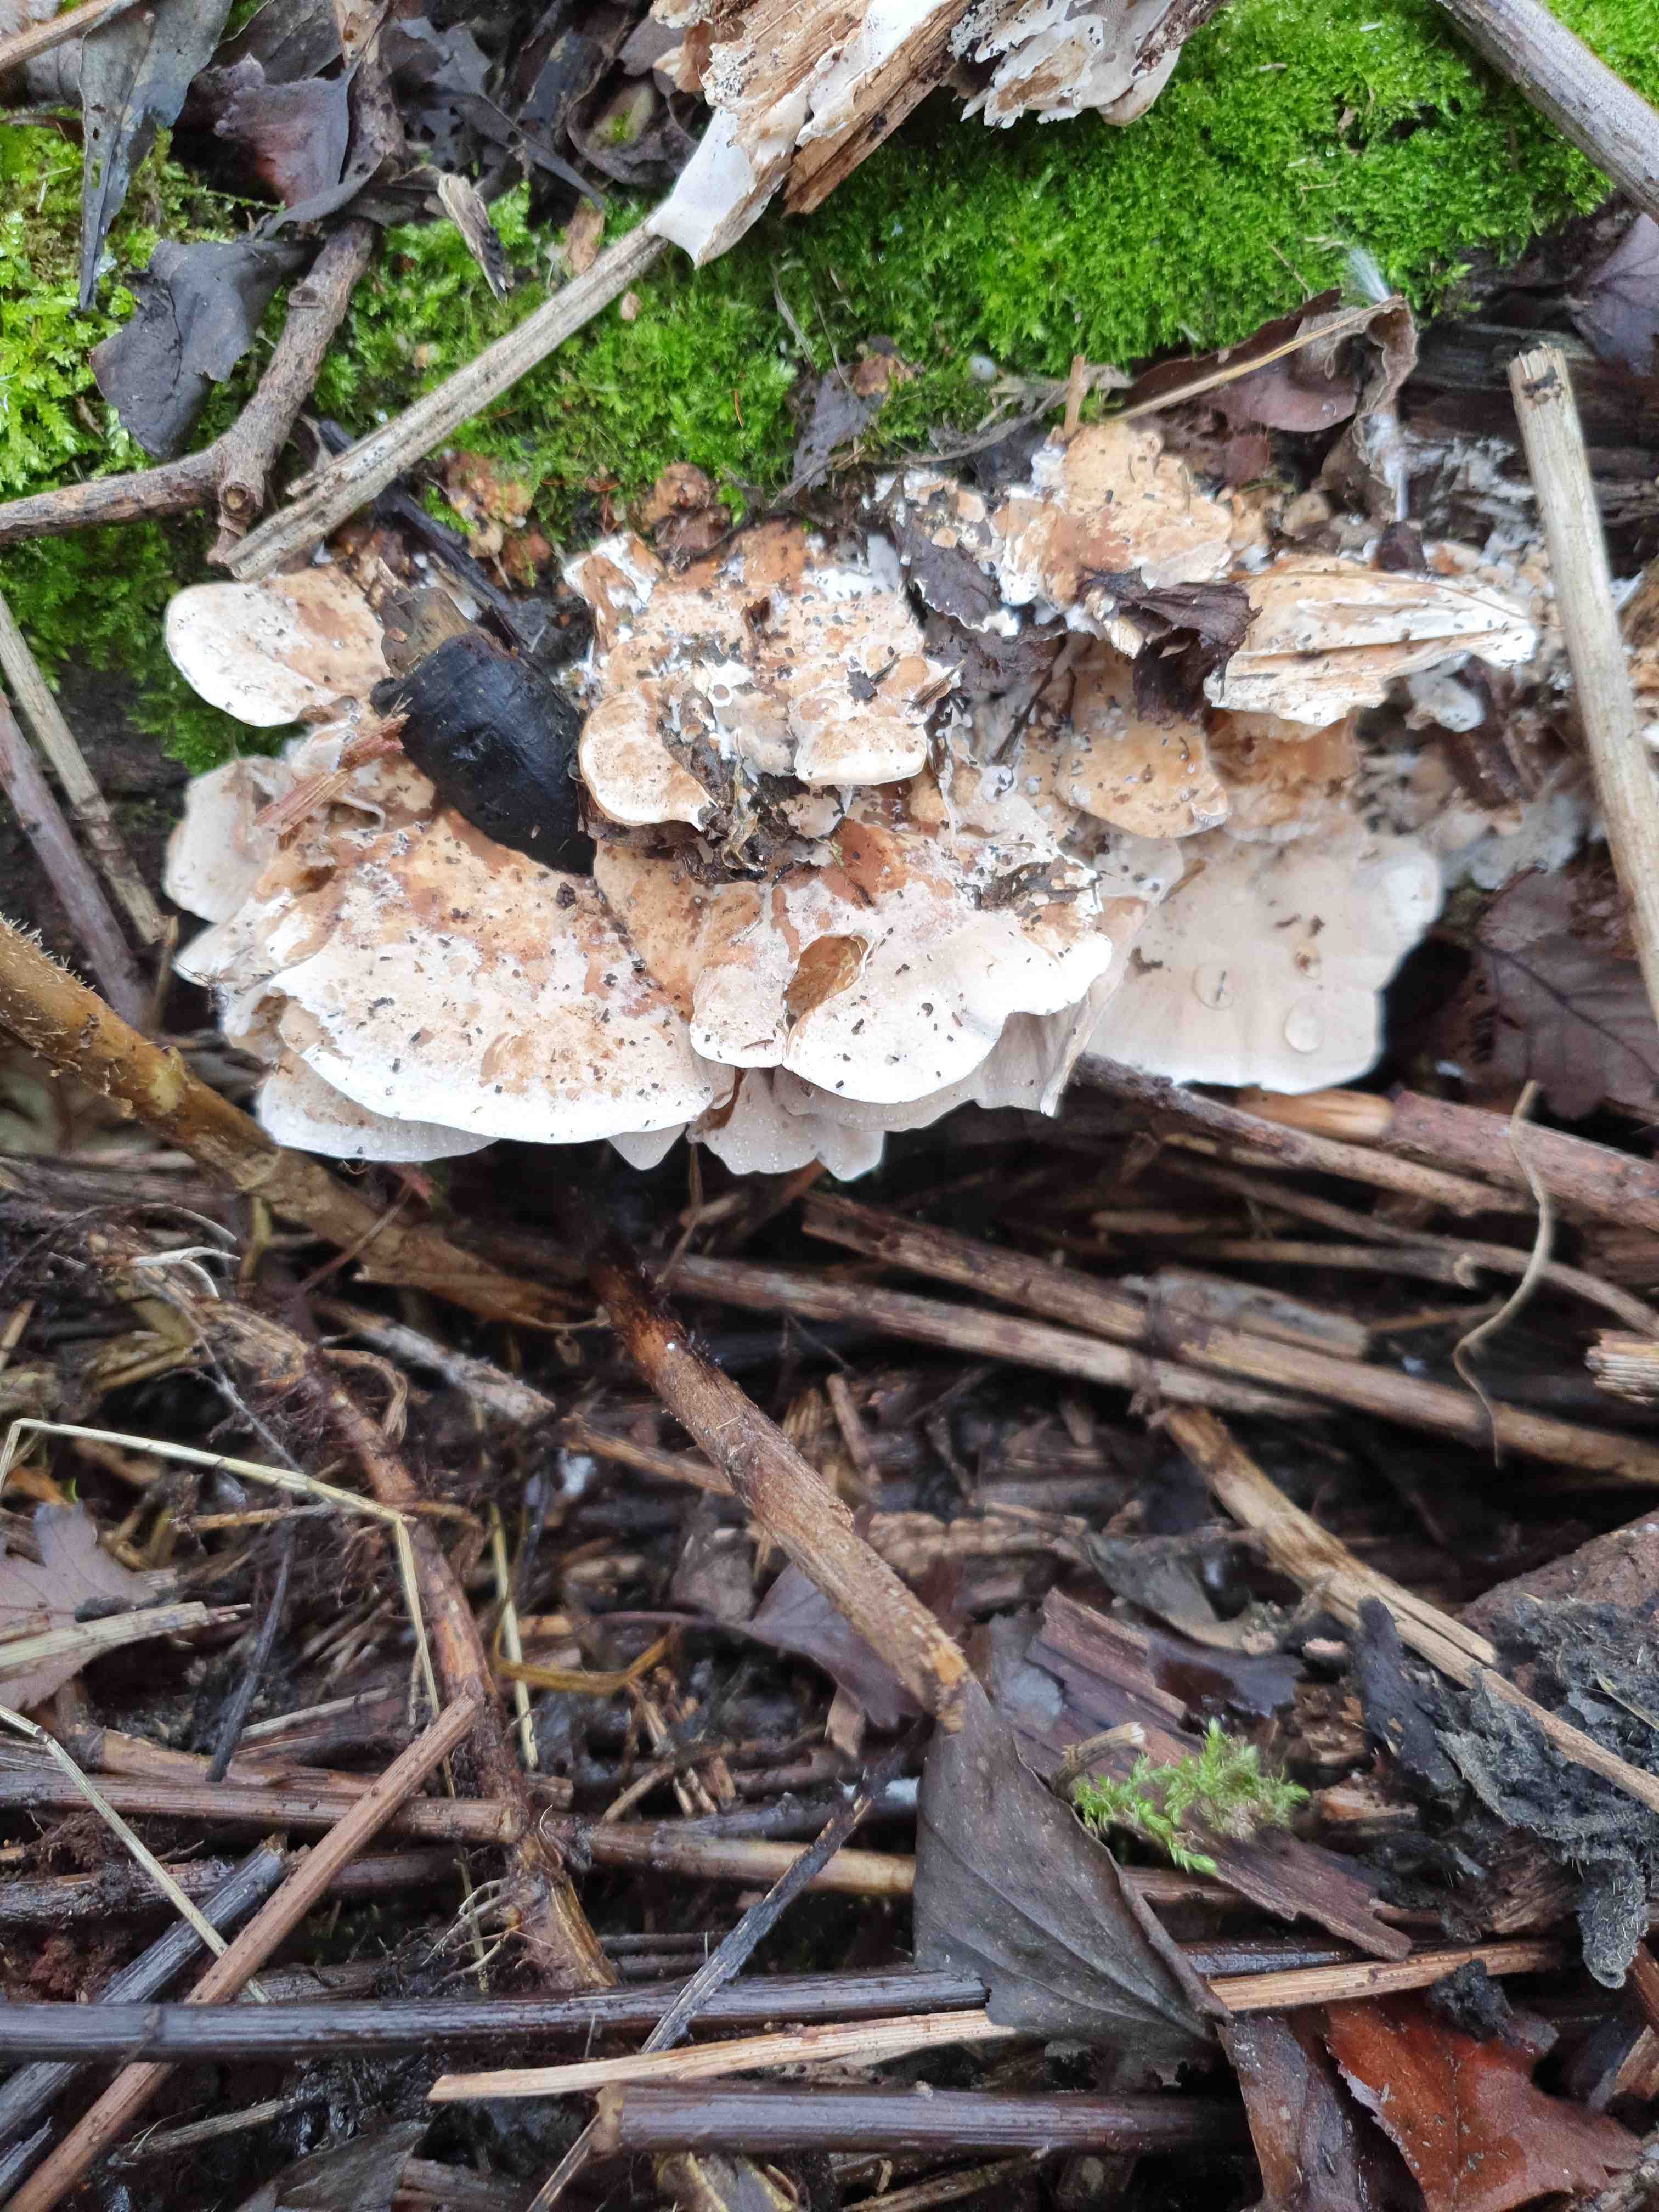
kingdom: Fungi
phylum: Basidiomycota
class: Agaricomycetes
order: Polyporales
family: Phanerochaetaceae
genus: Bjerkandera
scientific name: Bjerkandera fumosa
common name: grågul sodporesvamp
